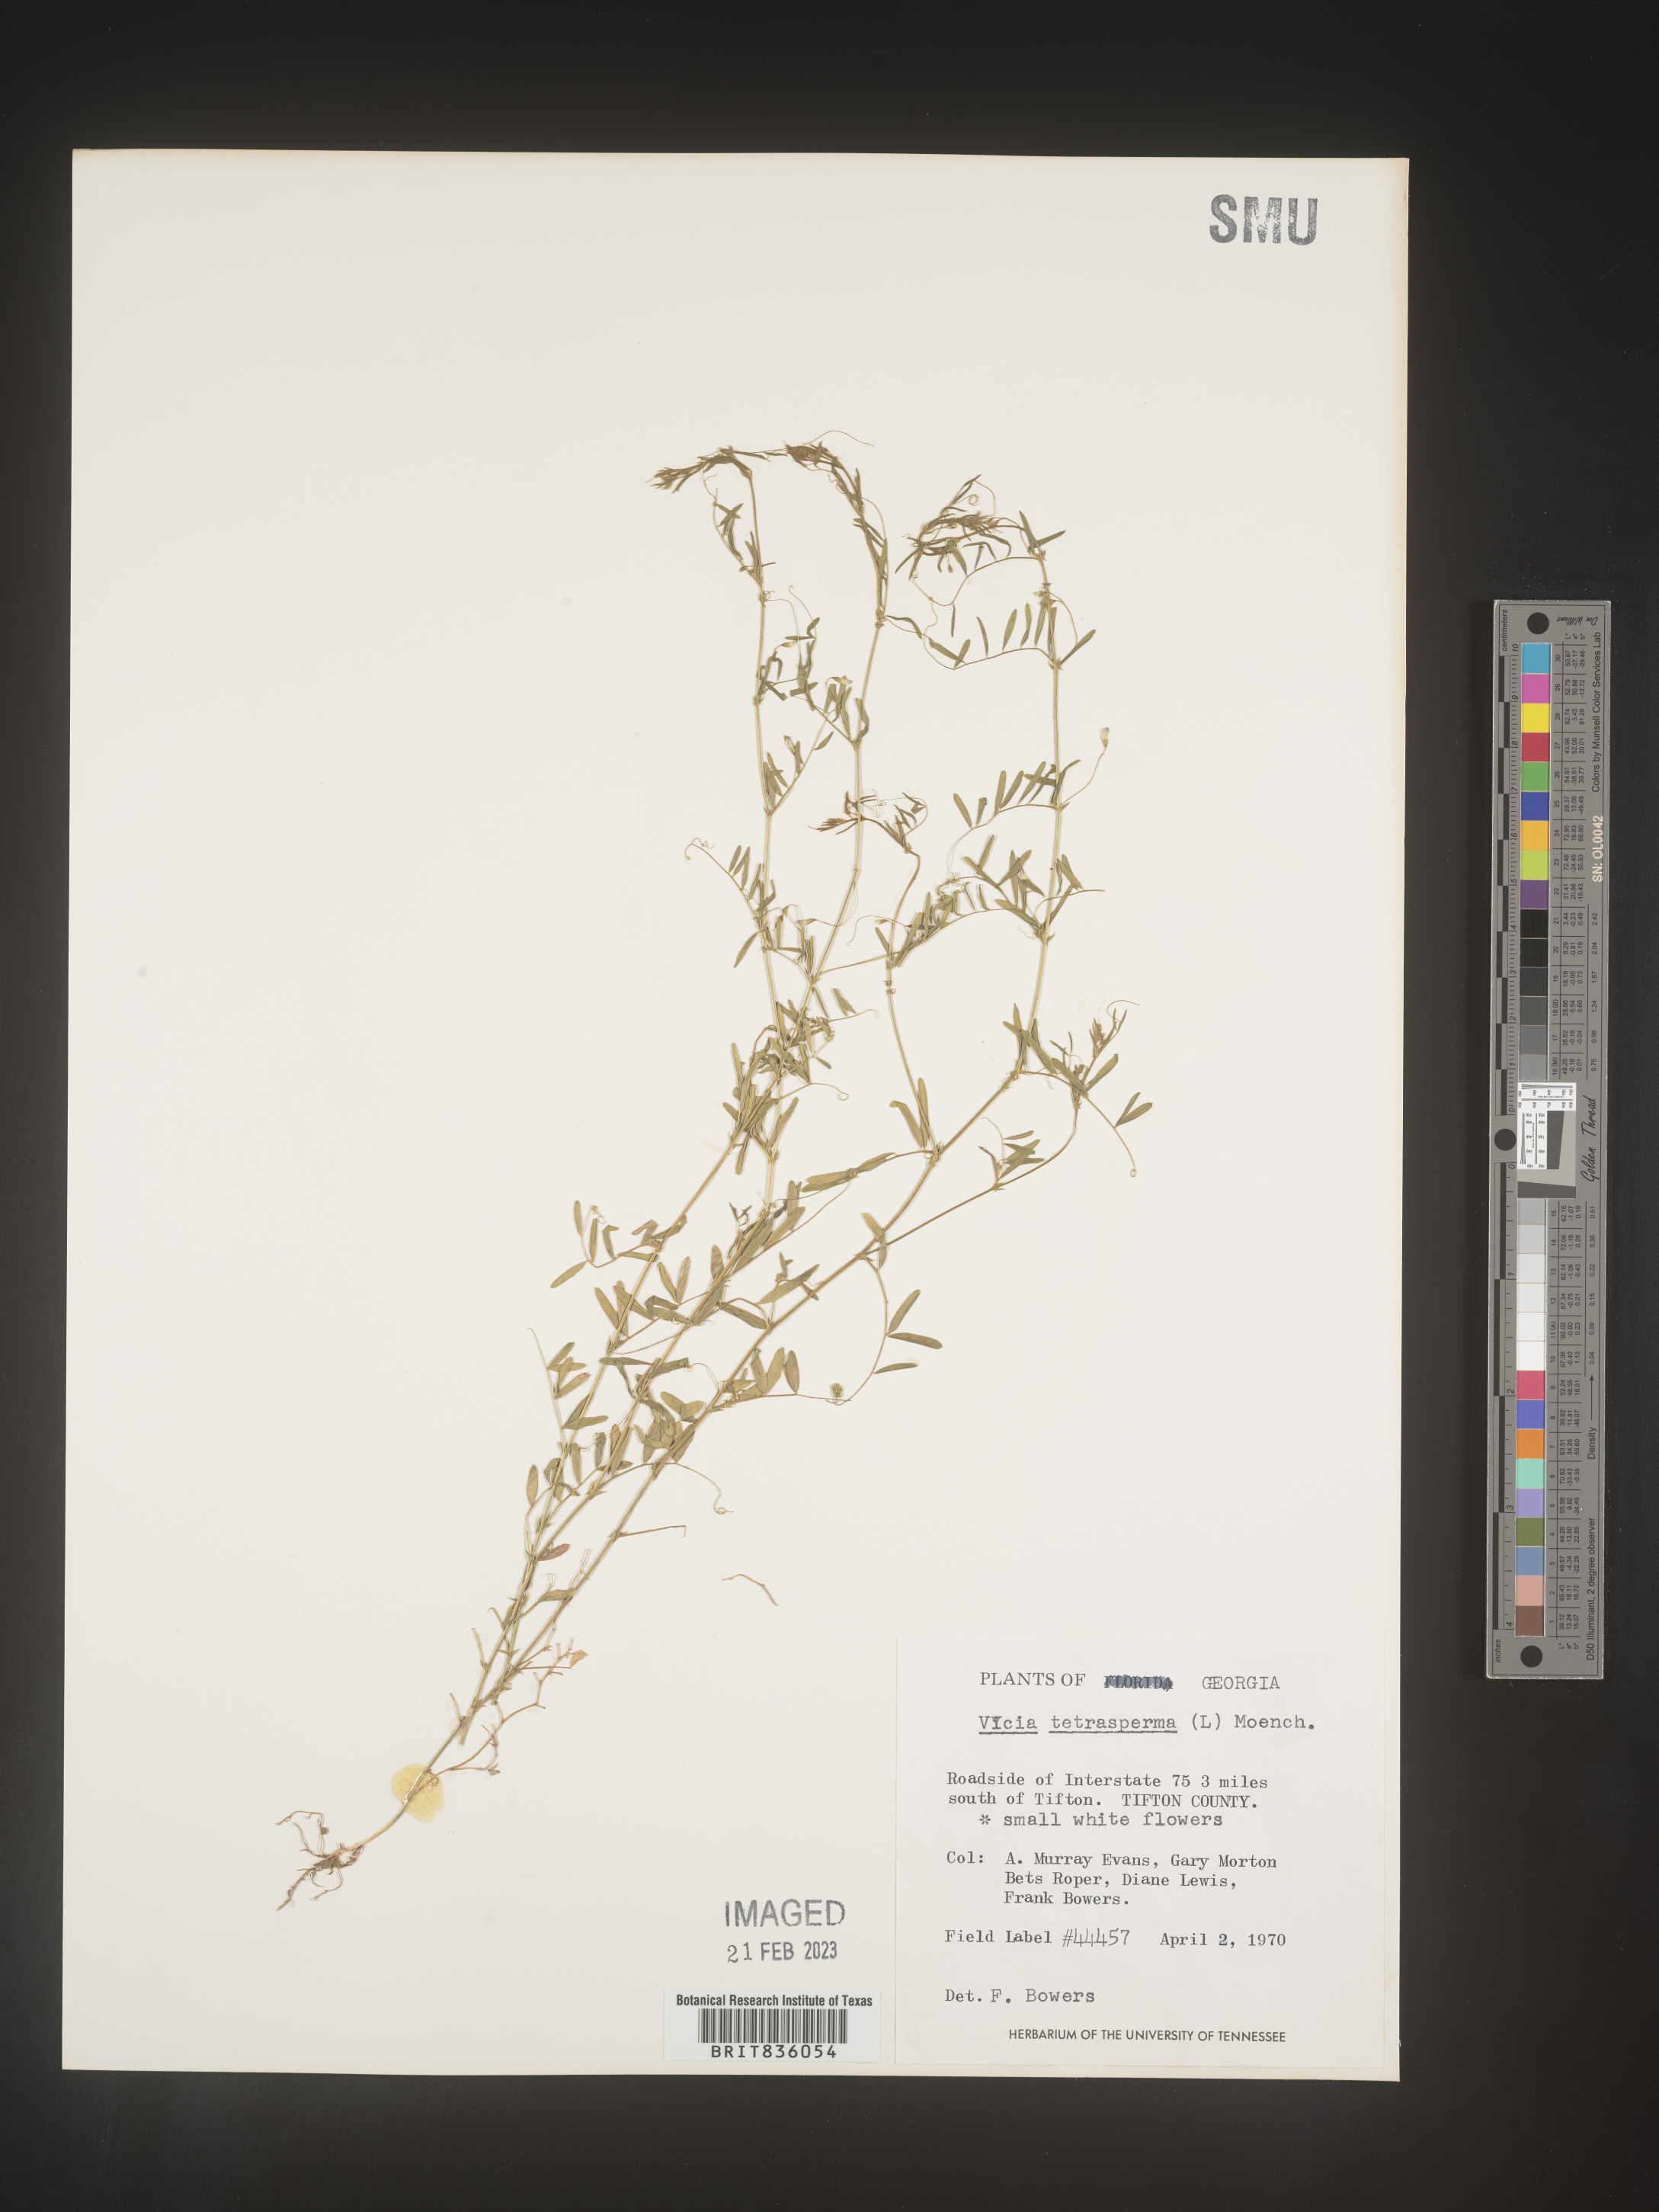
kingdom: Plantae
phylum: Tracheophyta
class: Magnoliopsida
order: Fabales
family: Fabaceae
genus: Vicia
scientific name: Vicia tetrasperma
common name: Smooth tare
